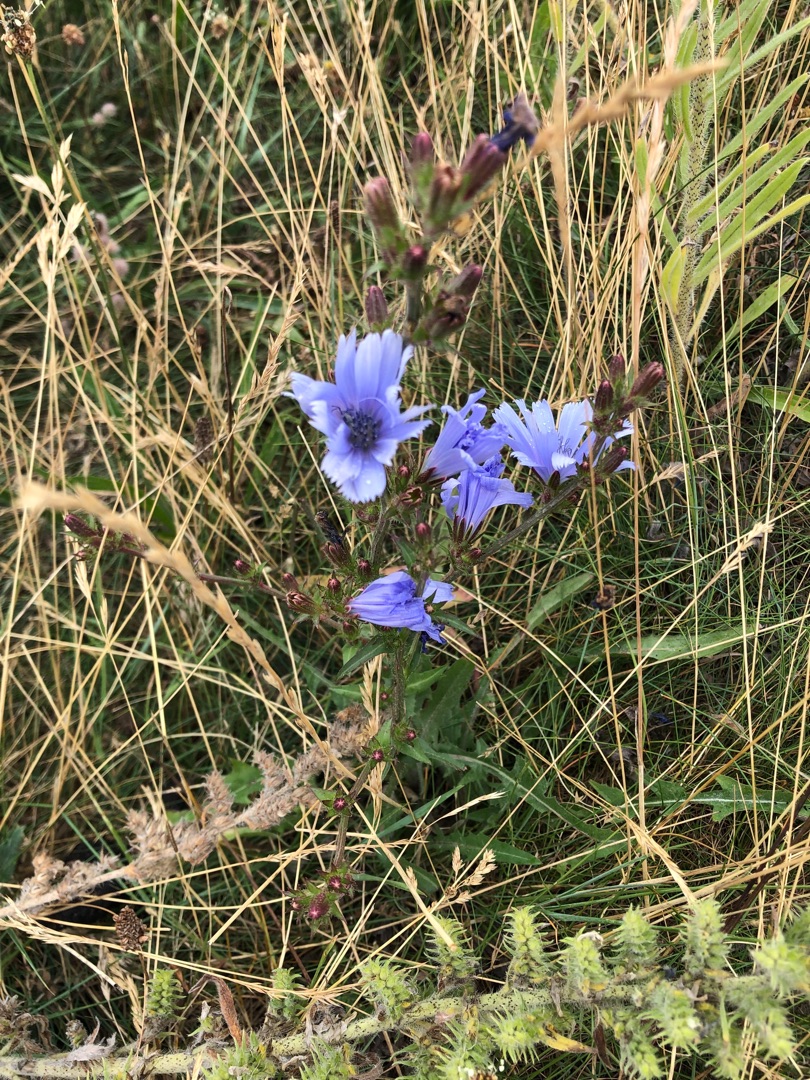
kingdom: Plantae
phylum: Tracheophyta
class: Magnoliopsida
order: Asterales
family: Asteraceae
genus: Cichorium
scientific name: Cichorium intybus
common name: Cikorie
